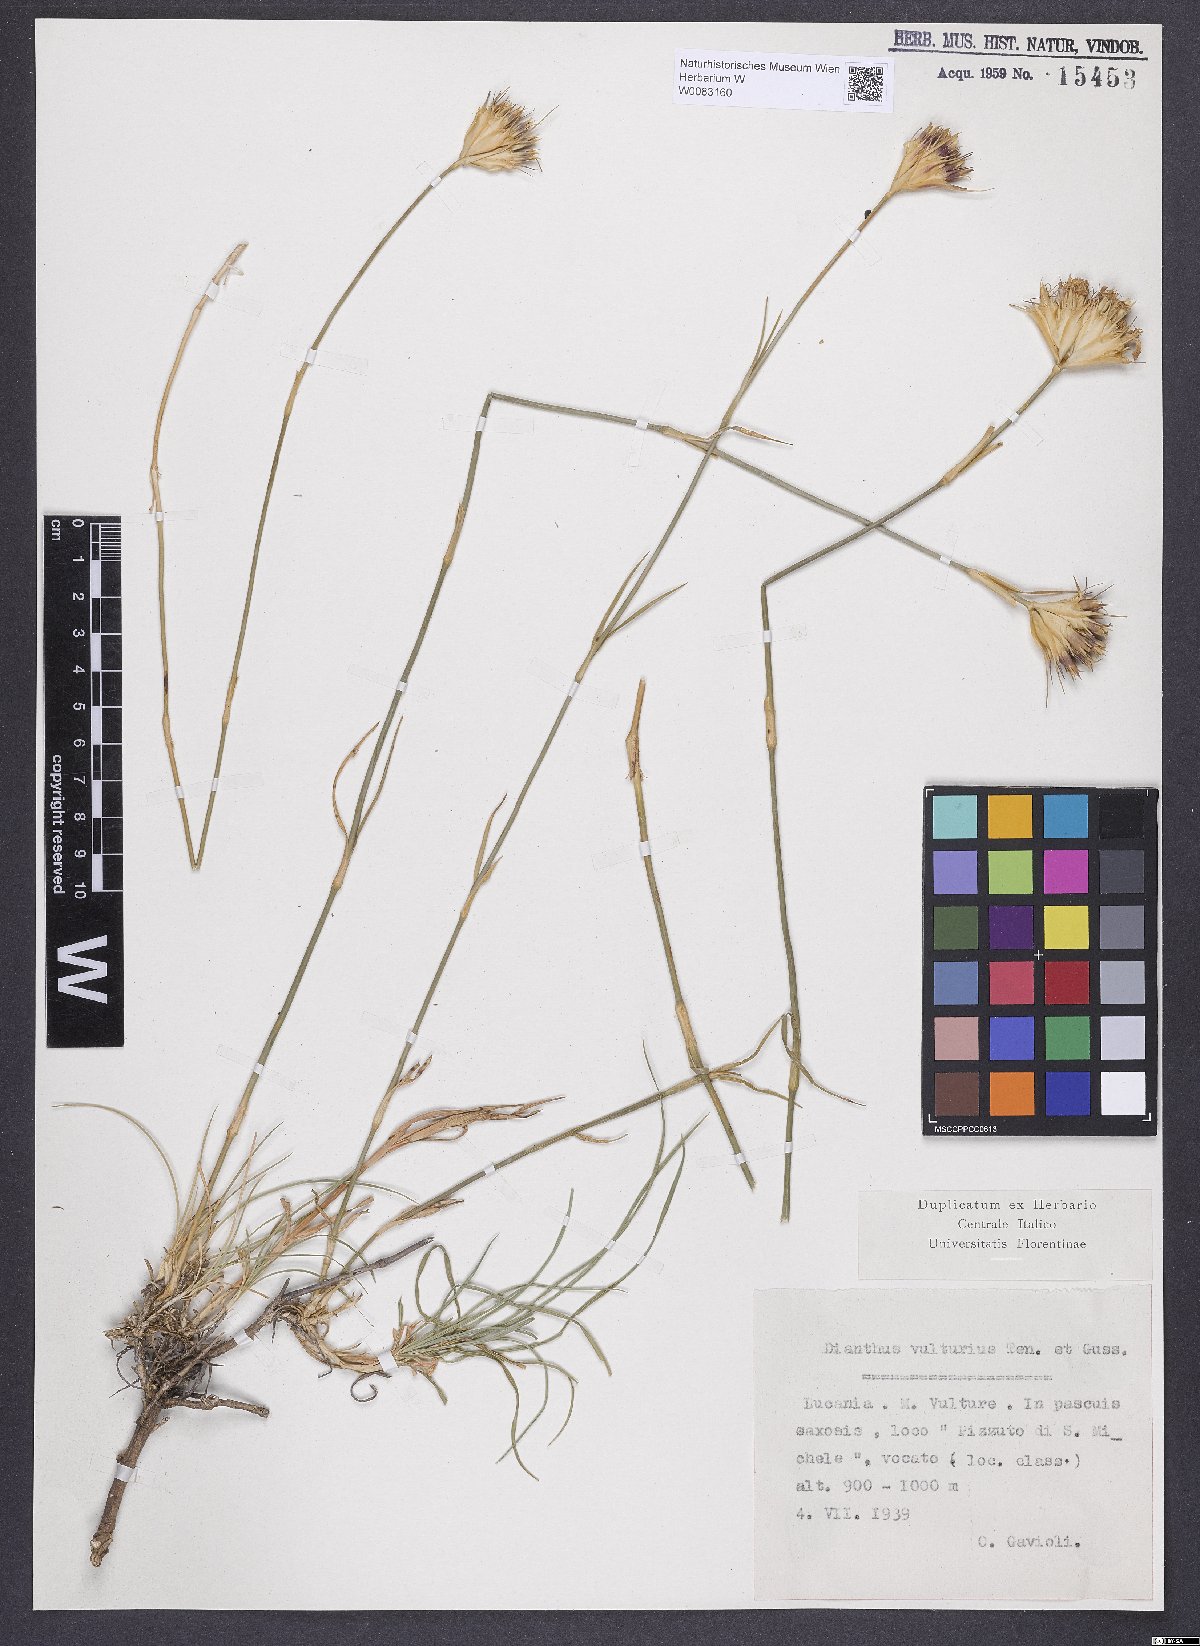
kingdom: Plantae
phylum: Tracheophyta
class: Magnoliopsida
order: Caryophyllales
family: Caryophyllaceae
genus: Dianthus
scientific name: Dianthus vulturius
